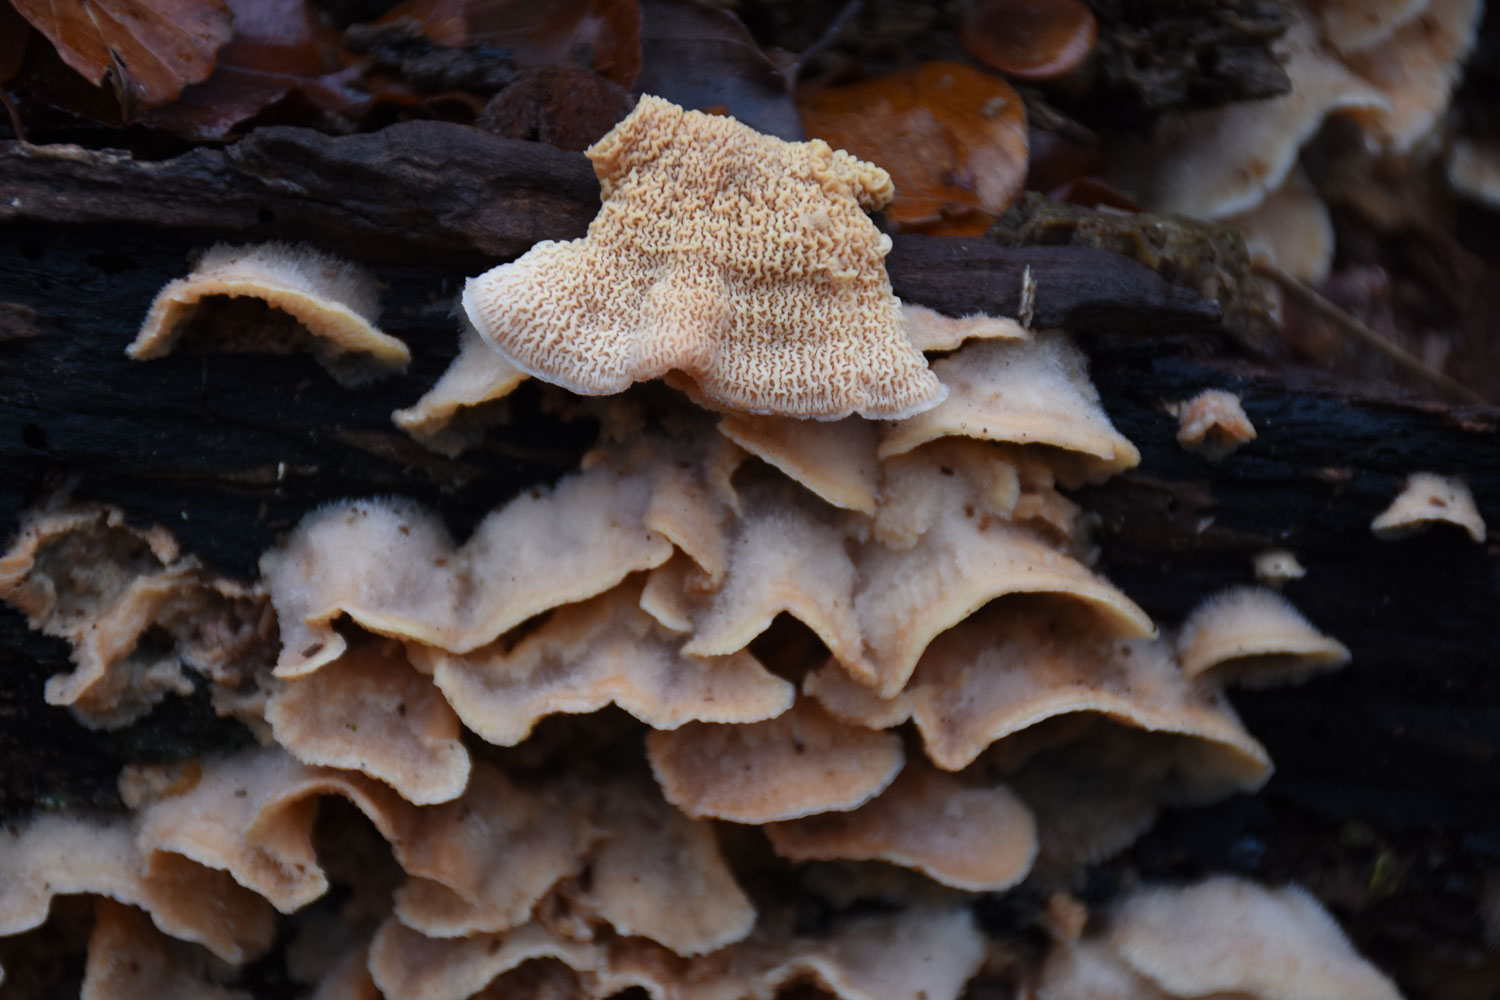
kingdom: Fungi
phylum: Basidiomycota
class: Agaricomycetes
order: Polyporales
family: Meruliaceae
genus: Phlebia
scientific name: Phlebia tremellosa
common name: bævrende åresvamp
